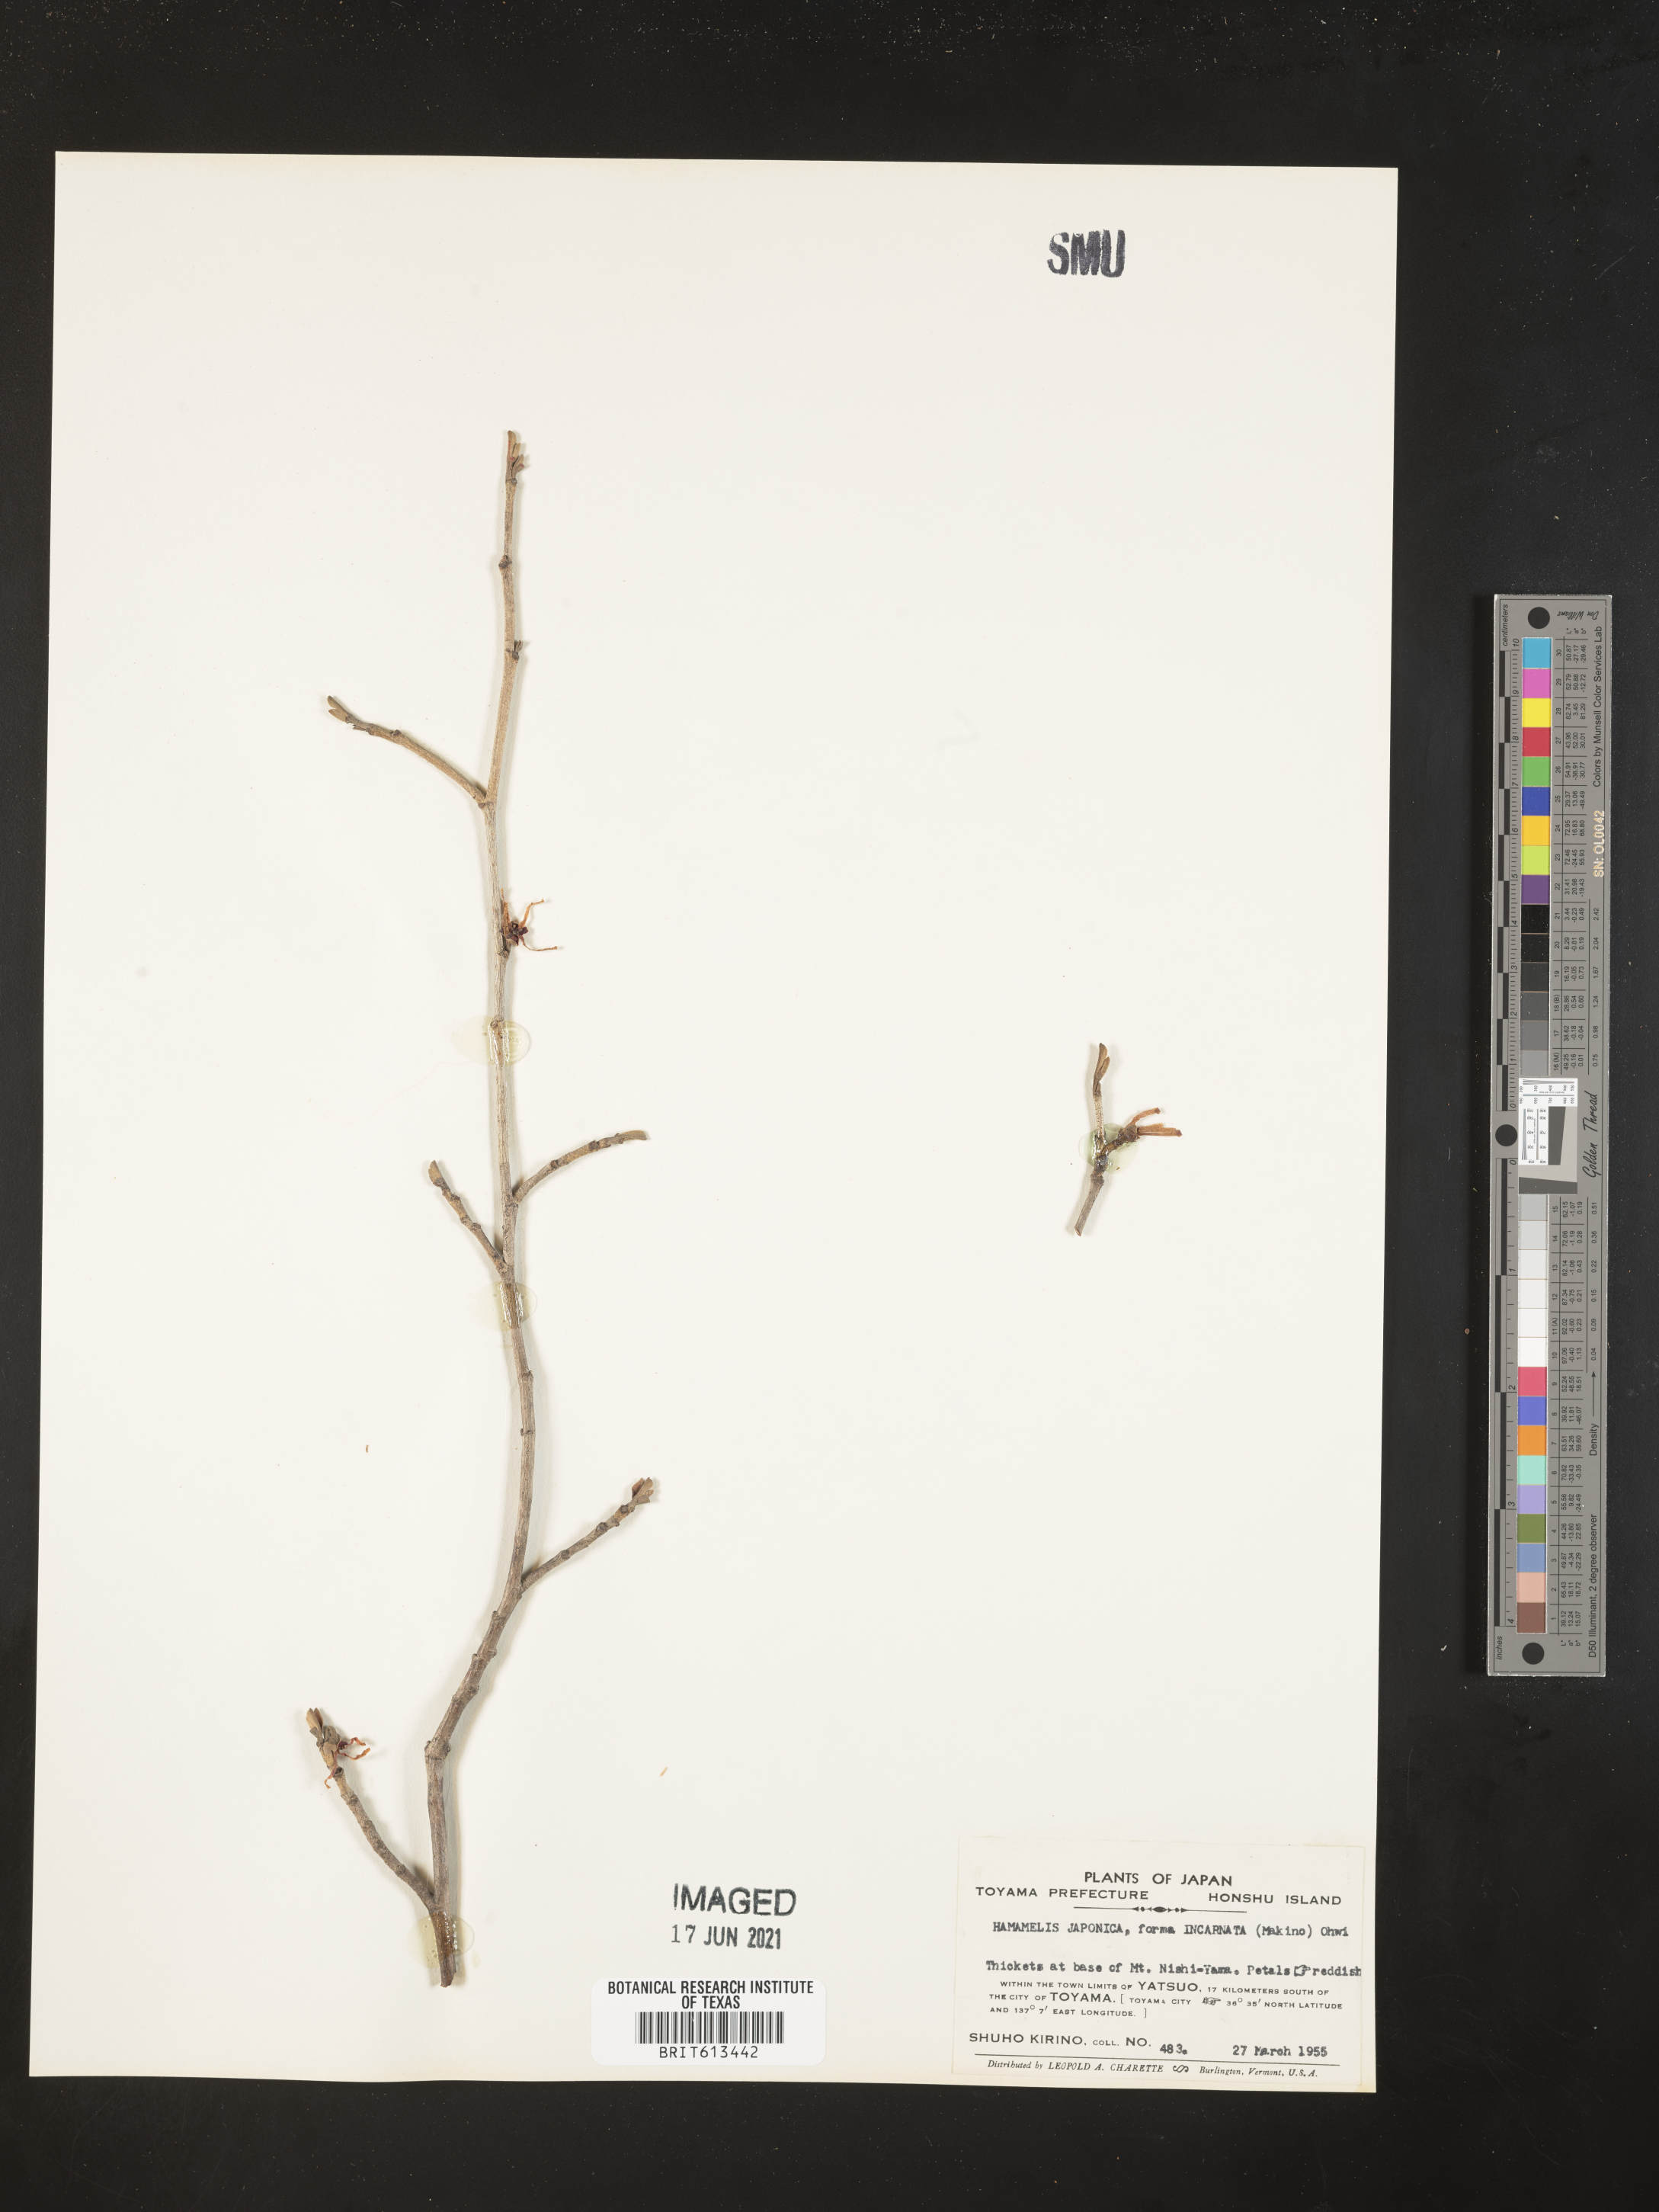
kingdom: Plantae
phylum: Tracheophyta
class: Magnoliopsida
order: Saxifragales
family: Hamamelidaceae
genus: Hamamelis
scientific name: Hamamelis japonica
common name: Japanese witch-hazel
